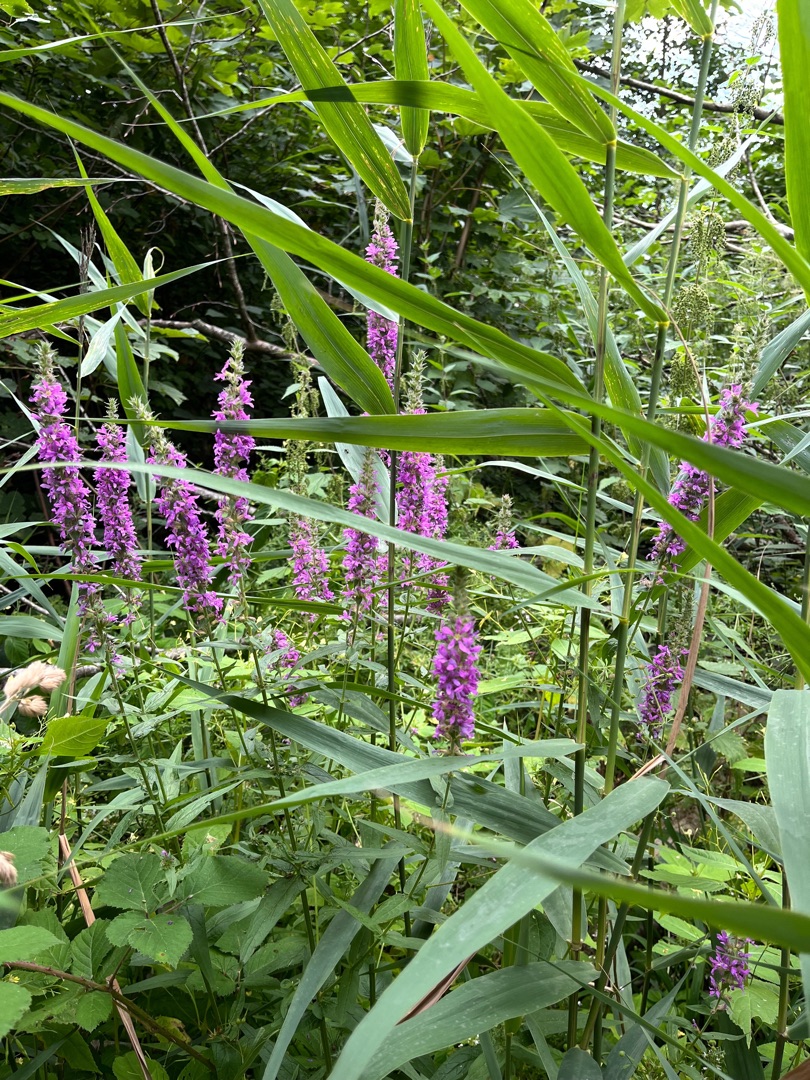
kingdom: Plantae
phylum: Tracheophyta
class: Magnoliopsida
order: Myrtales
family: Lythraceae
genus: Lythrum
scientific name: Lythrum salicaria
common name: Kattehale
